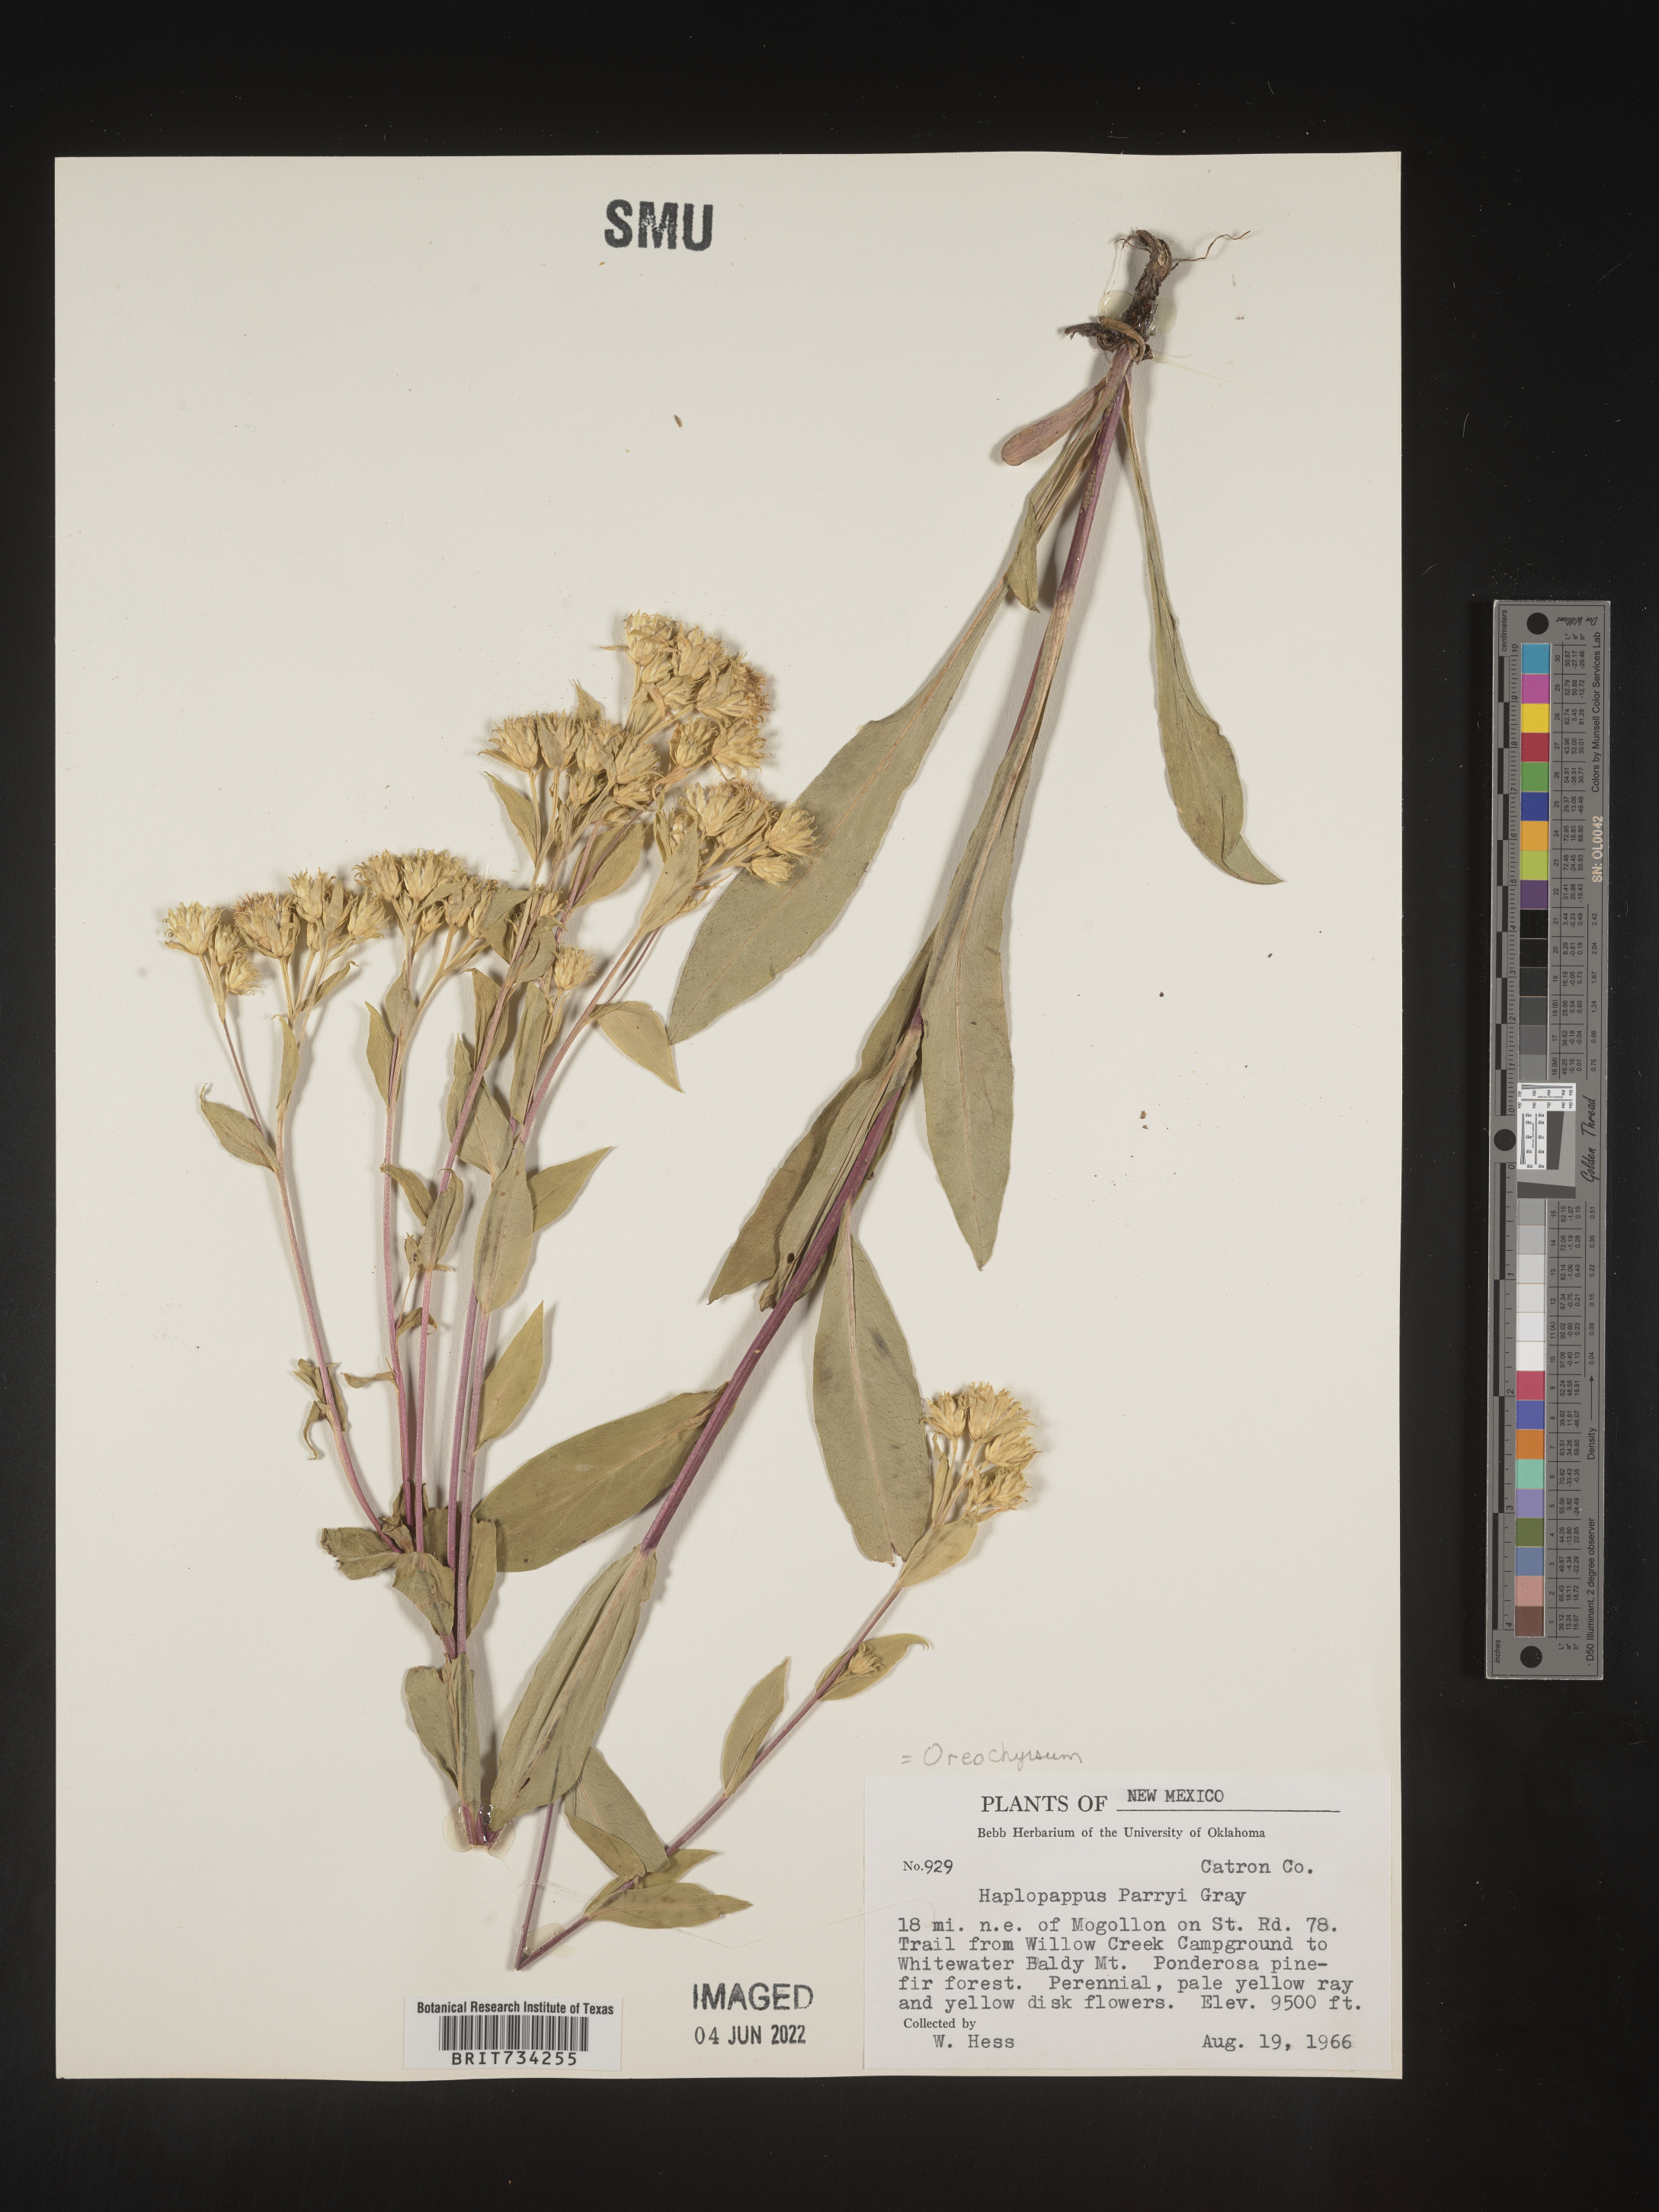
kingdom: Plantae
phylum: Tracheophyta
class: Magnoliopsida
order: Asterales
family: Asteraceae
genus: Oreochrysum
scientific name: Oreochrysum parryi
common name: Parry's goldenweed
